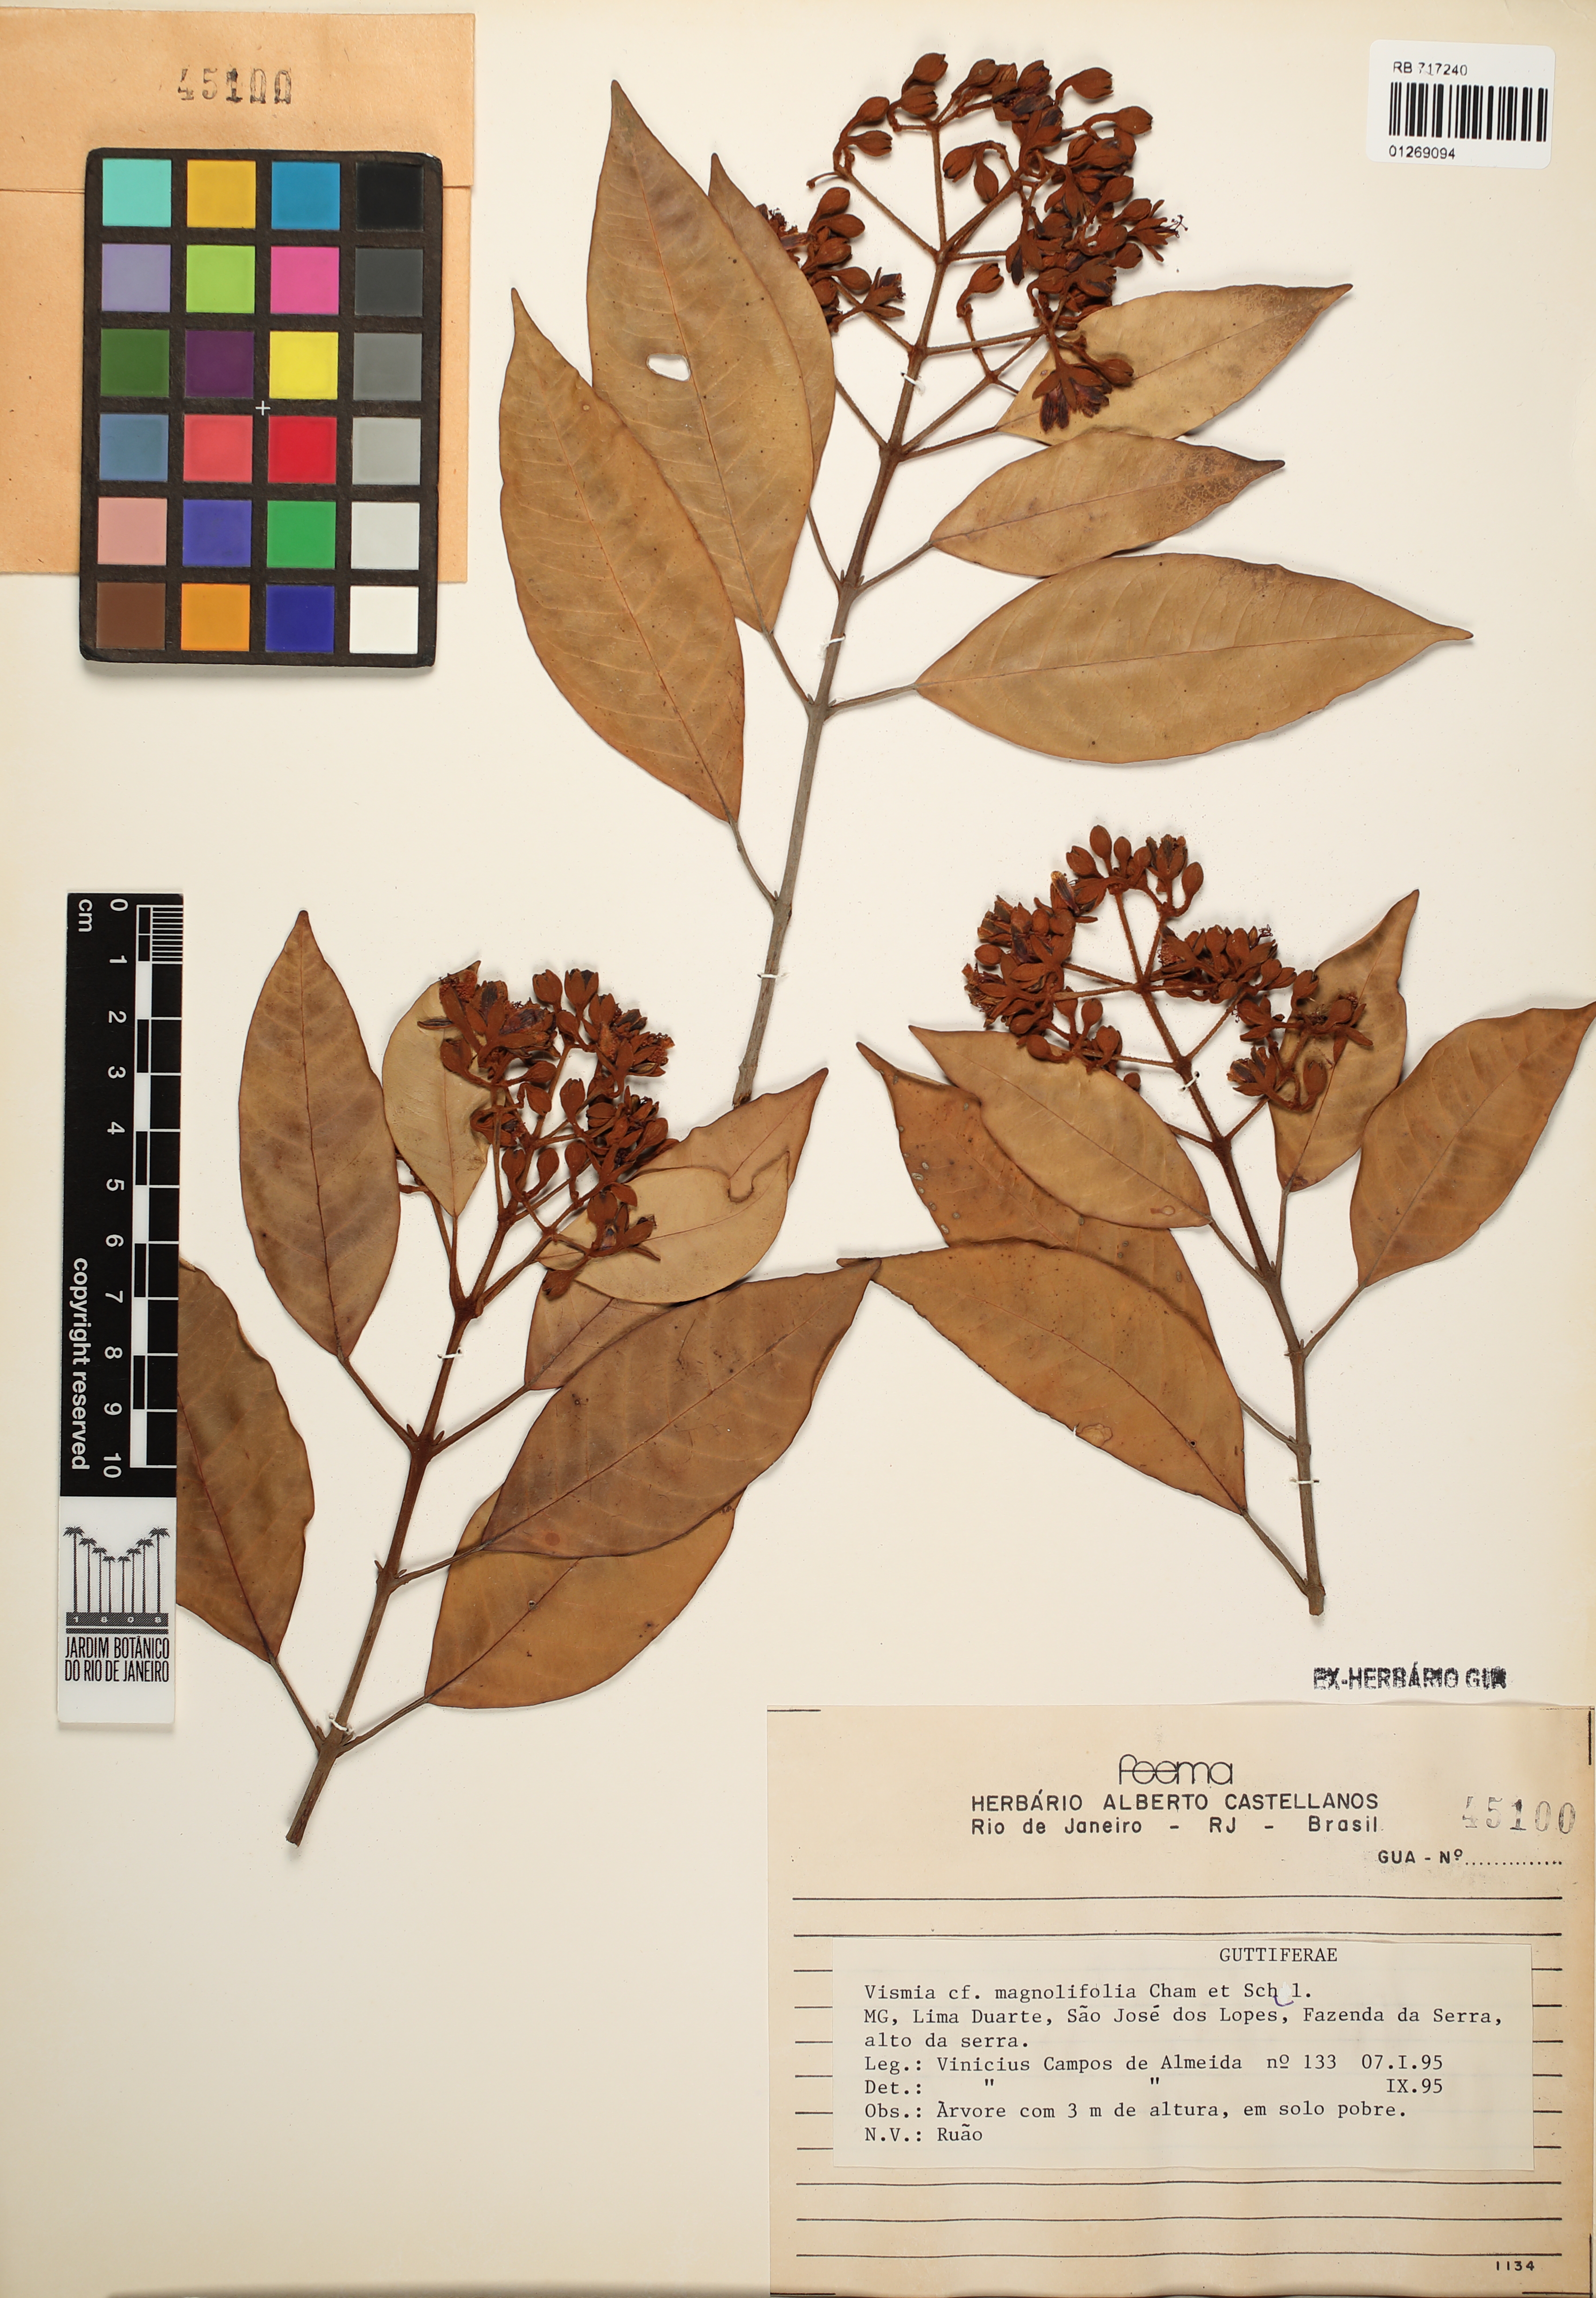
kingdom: Plantae
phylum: Tracheophyta
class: Magnoliopsida
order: Malpighiales
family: Hypericaceae
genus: Vismia
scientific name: Vismia magnoliifolia
